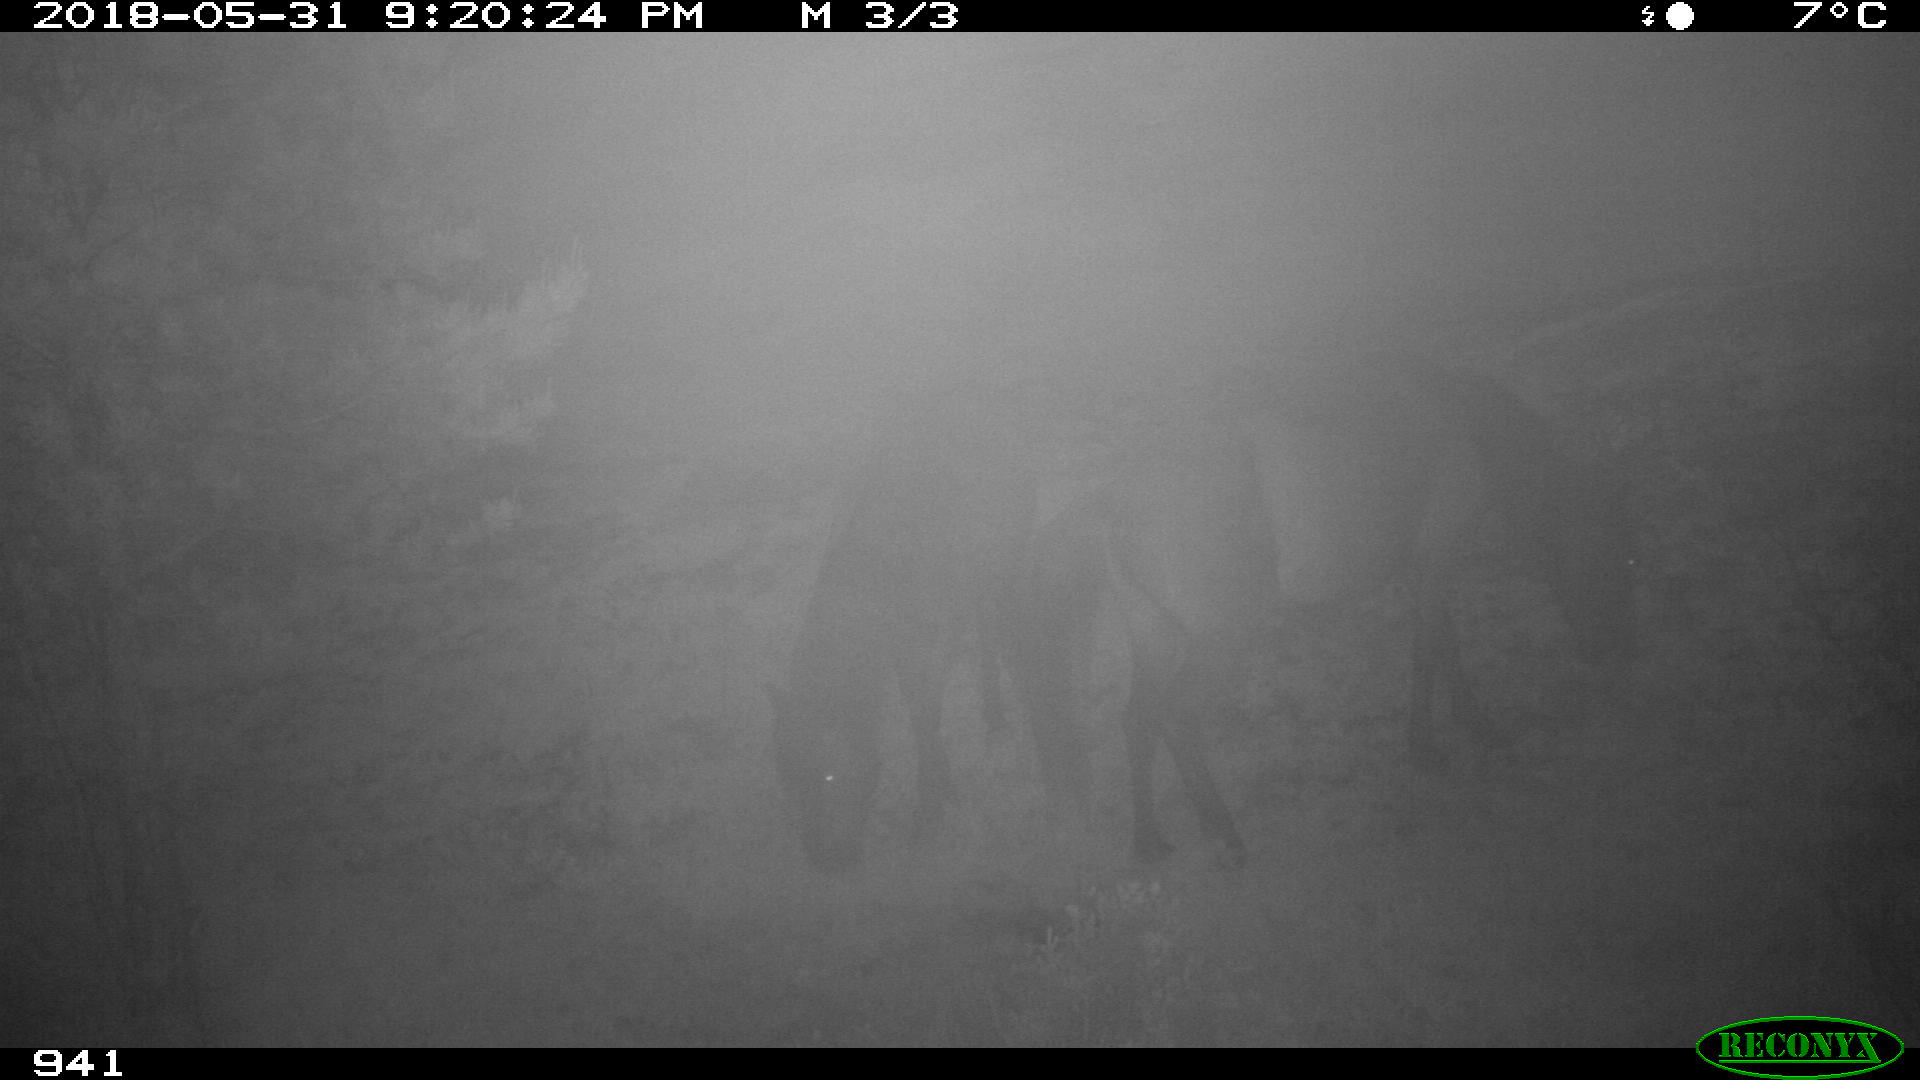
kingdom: Animalia
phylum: Chordata
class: Mammalia
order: Perissodactyla
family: Equidae
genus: Equus
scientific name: Equus caballus
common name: Horse
